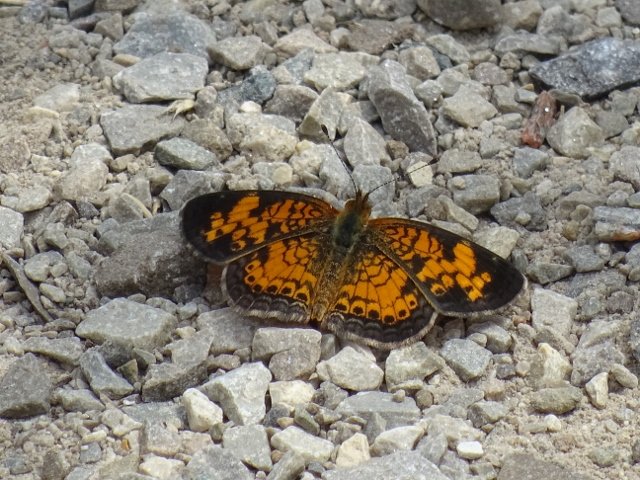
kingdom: Animalia
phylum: Arthropoda
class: Insecta
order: Lepidoptera
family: Nymphalidae
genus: Phyciodes
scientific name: Phyciodes tharos
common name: Pearl Crescent
